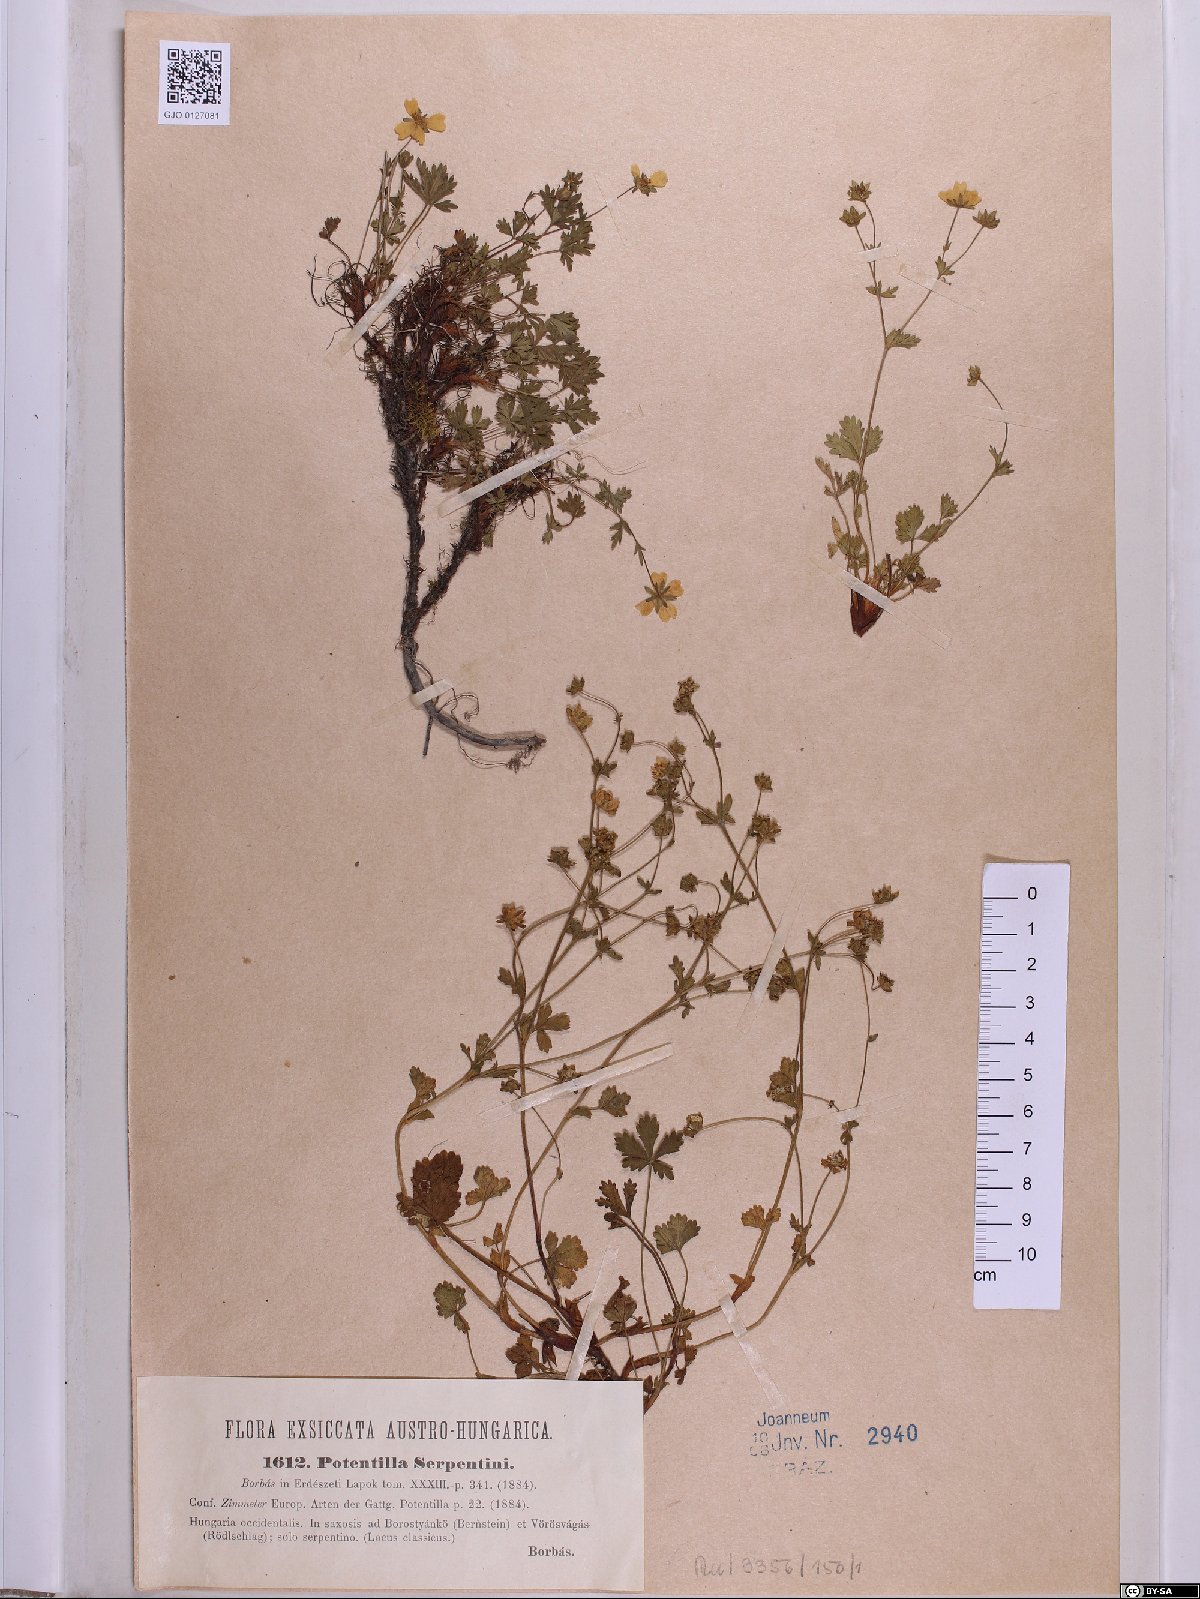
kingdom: Plantae
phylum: Tracheophyta
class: Magnoliopsida
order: Rosales
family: Rosaceae
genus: Potentilla
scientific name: Potentilla crantzii
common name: Alpine cinquefoil
